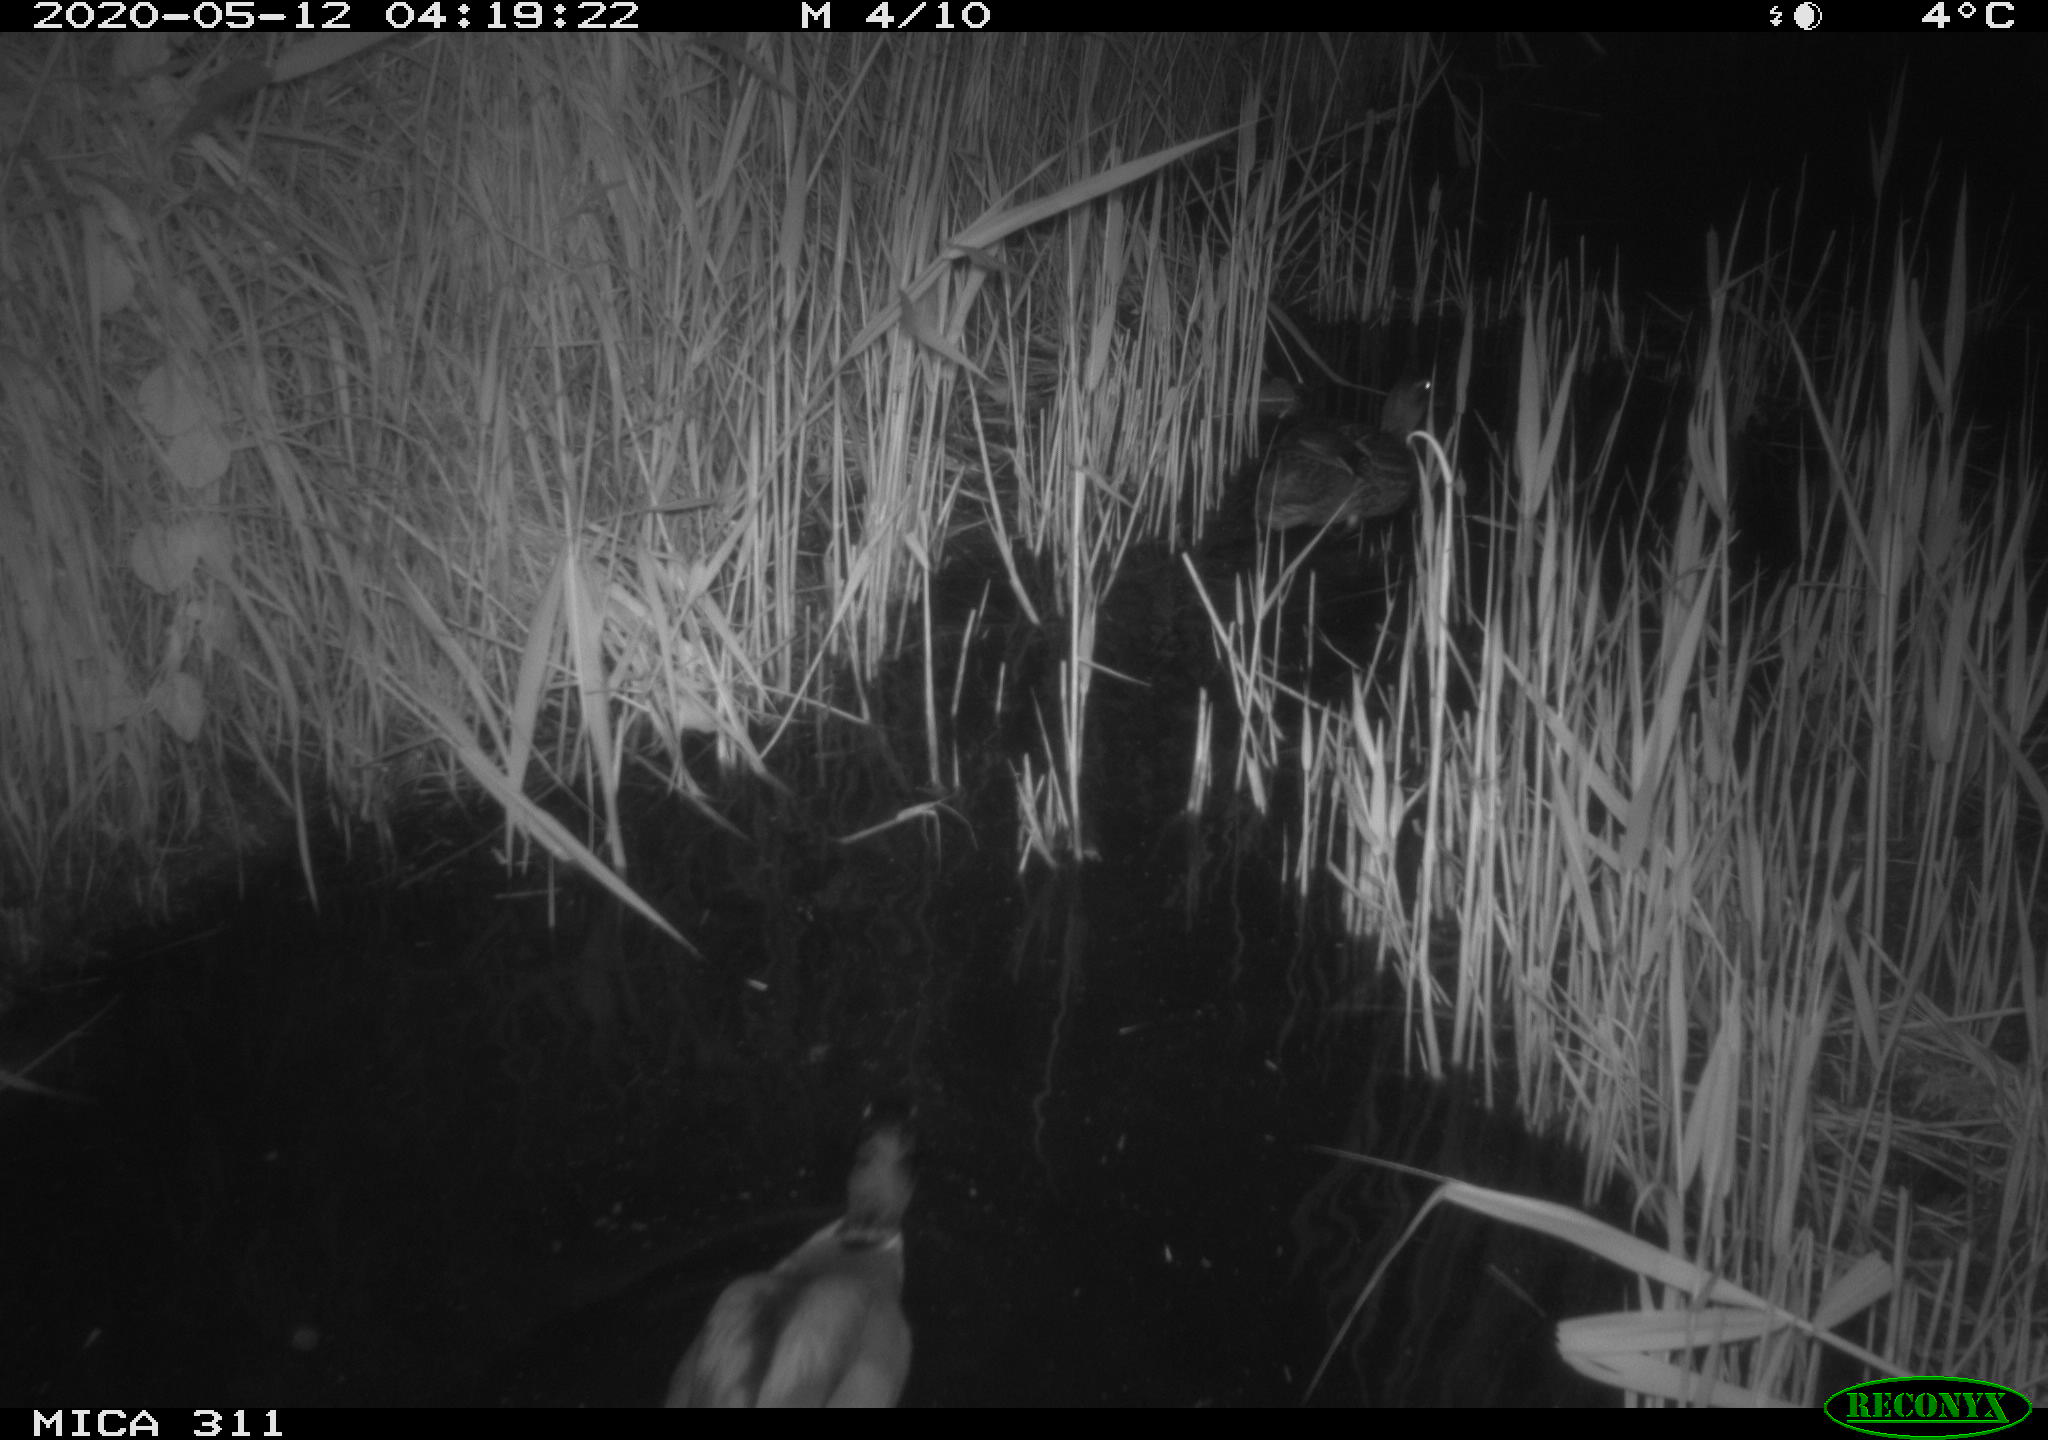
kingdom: Animalia
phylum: Chordata
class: Aves
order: Anseriformes
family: Anatidae
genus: Anas
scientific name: Anas platyrhynchos
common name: Mallard
